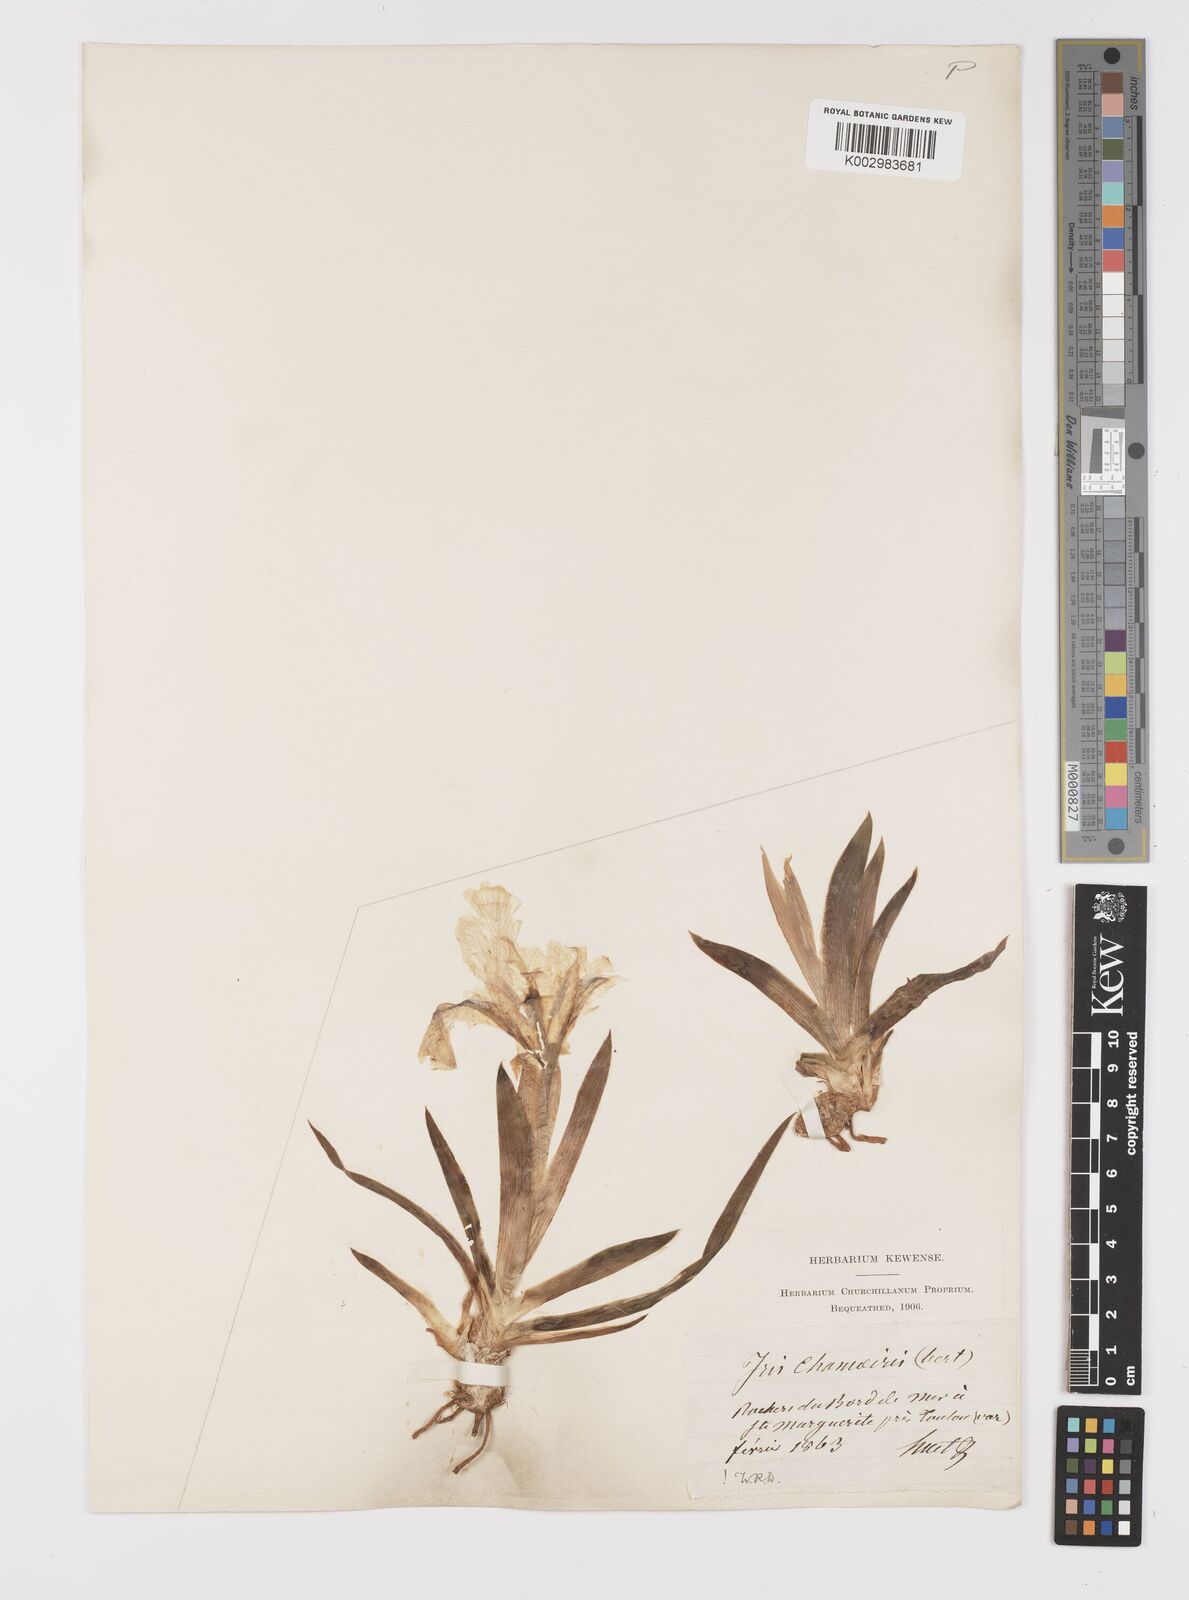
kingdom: Plantae
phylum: Tracheophyta
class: Liliopsida
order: Asparagales
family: Iridaceae
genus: Iris
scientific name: Iris lutescens
